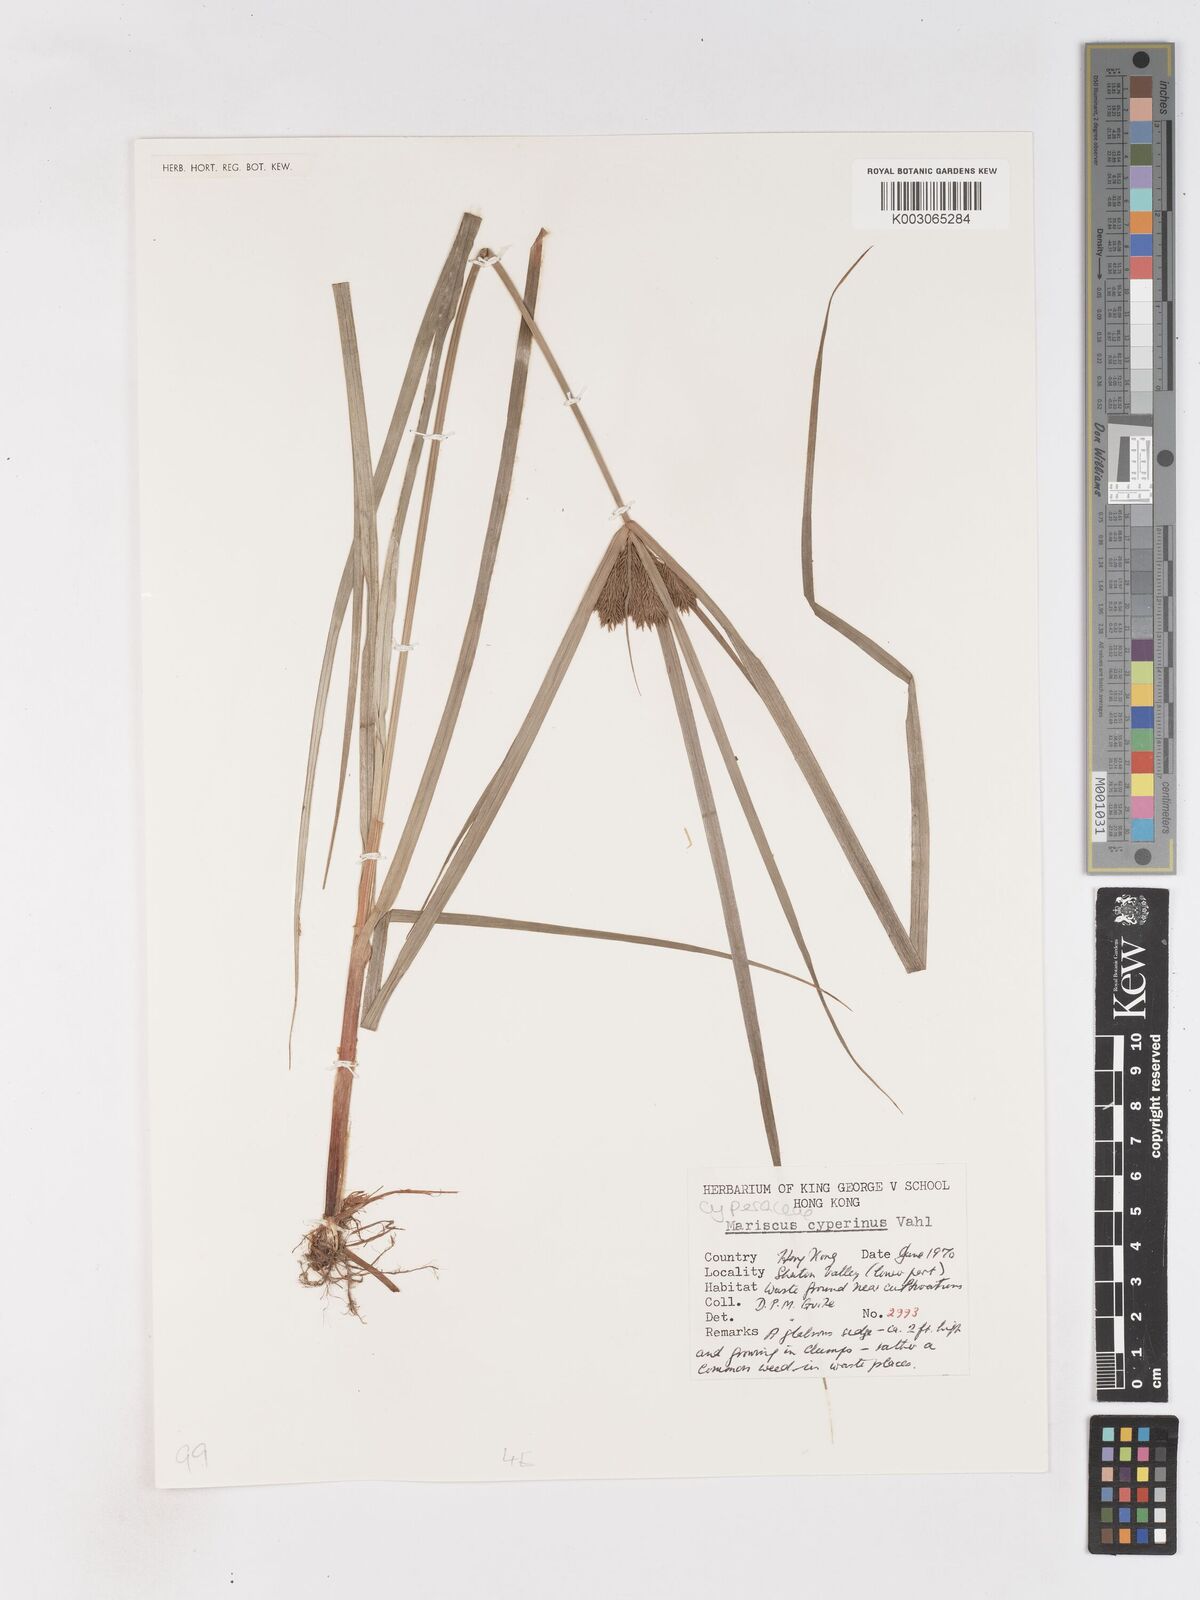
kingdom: Plantae
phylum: Tracheophyta
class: Liliopsida
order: Poales
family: Cyperaceae
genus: Cyperus
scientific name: Cyperus cyperinus
